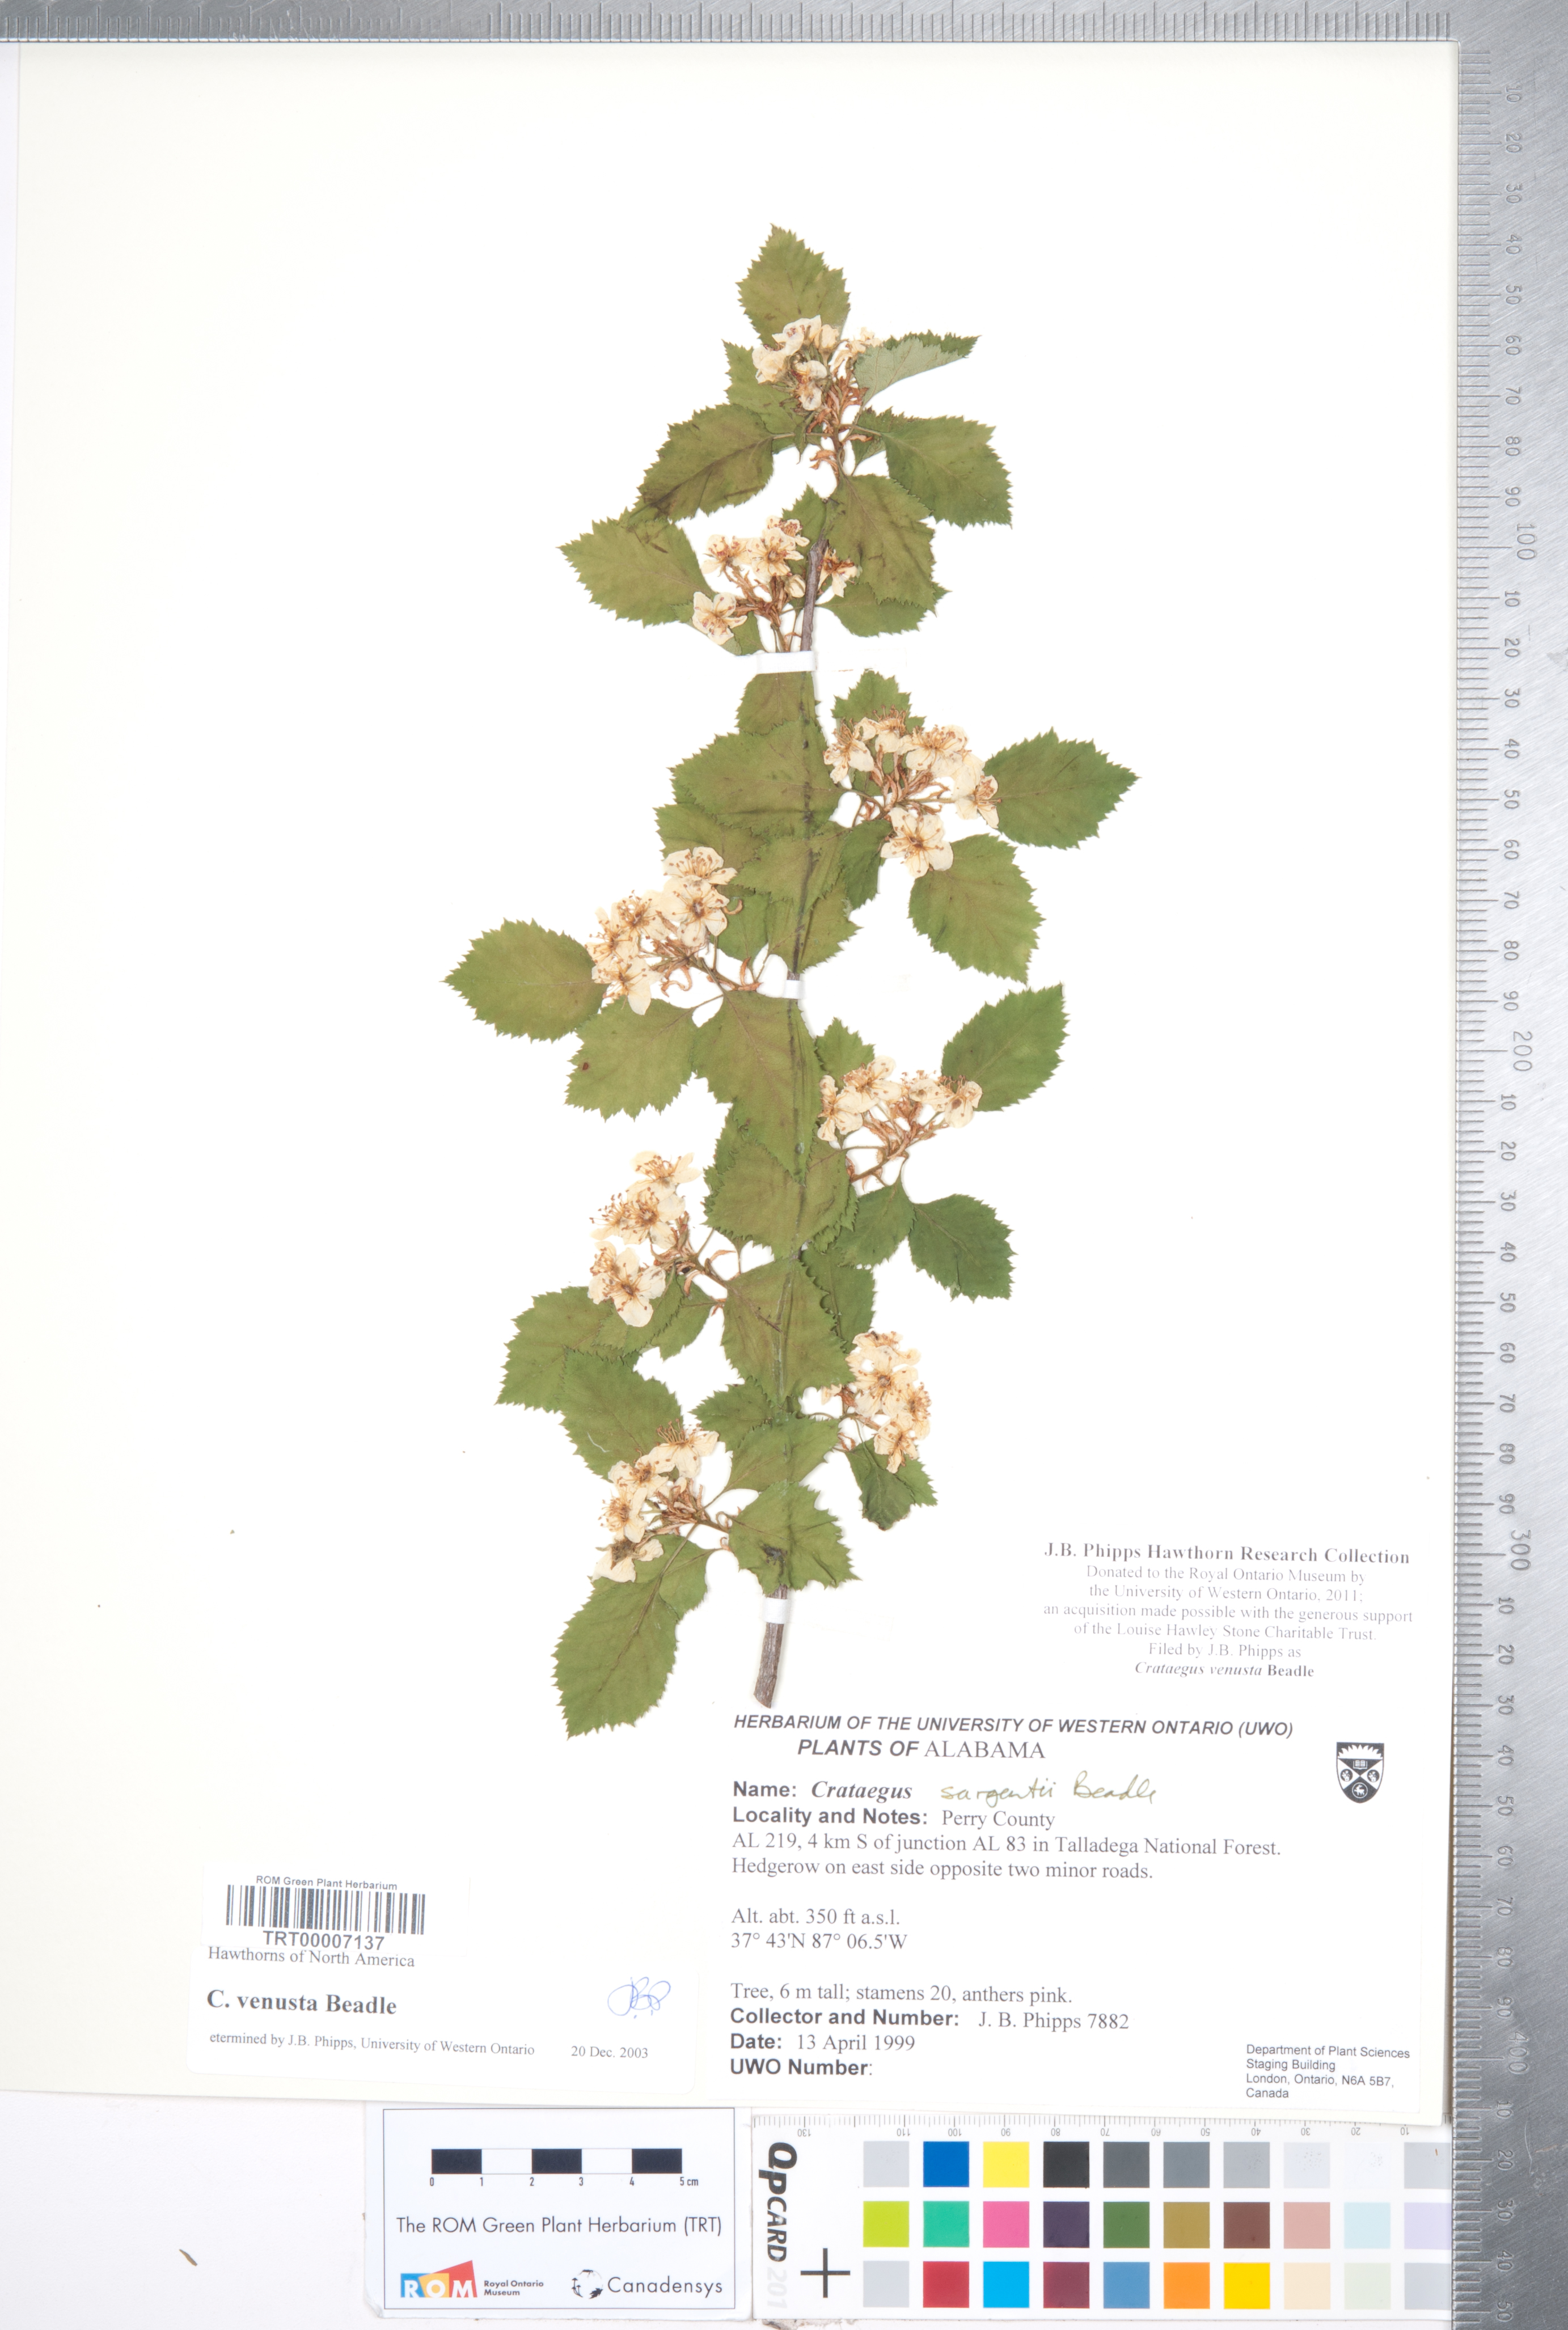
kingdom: Plantae
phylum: Tracheophyta
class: Magnoliopsida
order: Rosales
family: Rosaceae
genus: Crataegus
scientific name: Crataegus venusta
